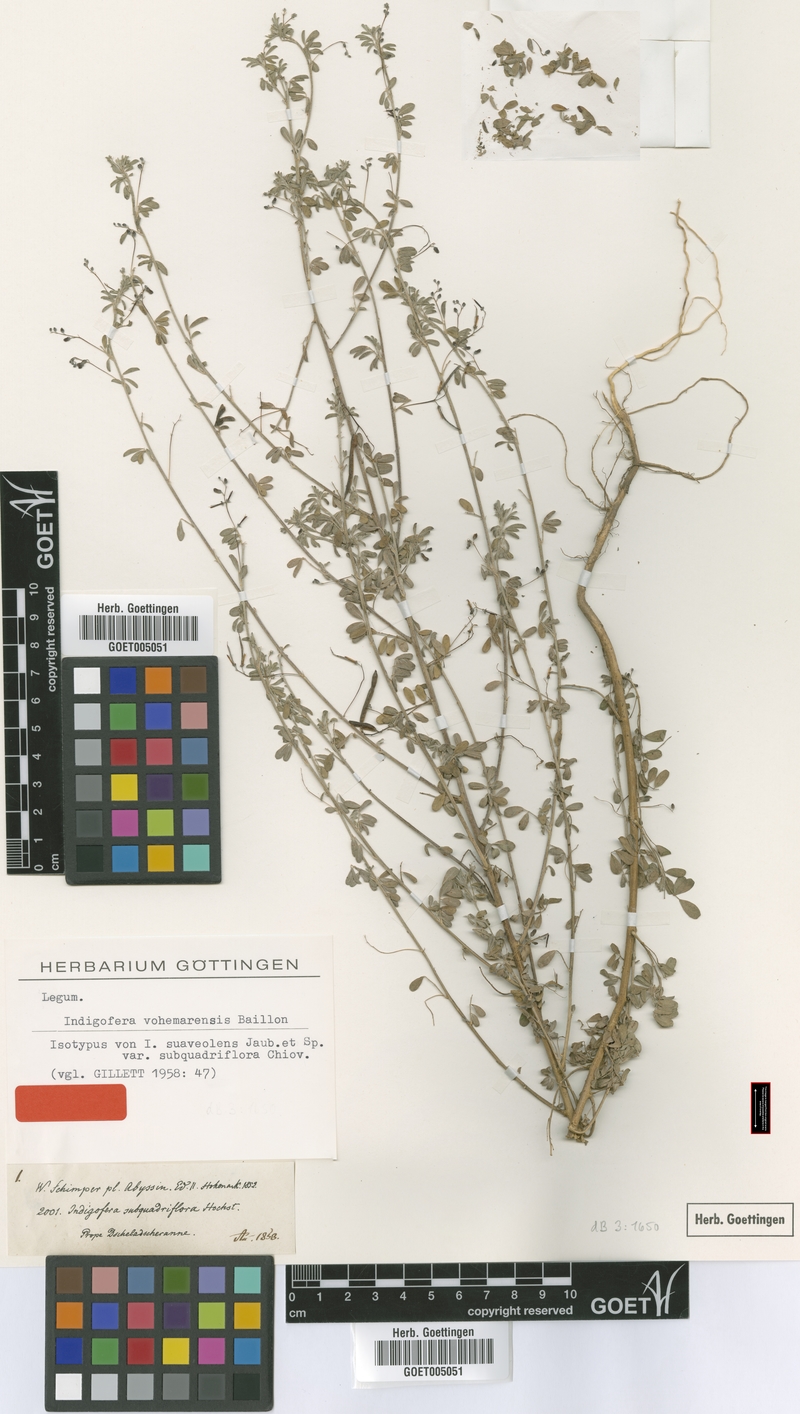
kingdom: Plantae
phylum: Tracheophyta
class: Magnoliopsida
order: Fabales
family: Fabaceae
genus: Indigofera
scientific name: Indigofera vohemarensis
